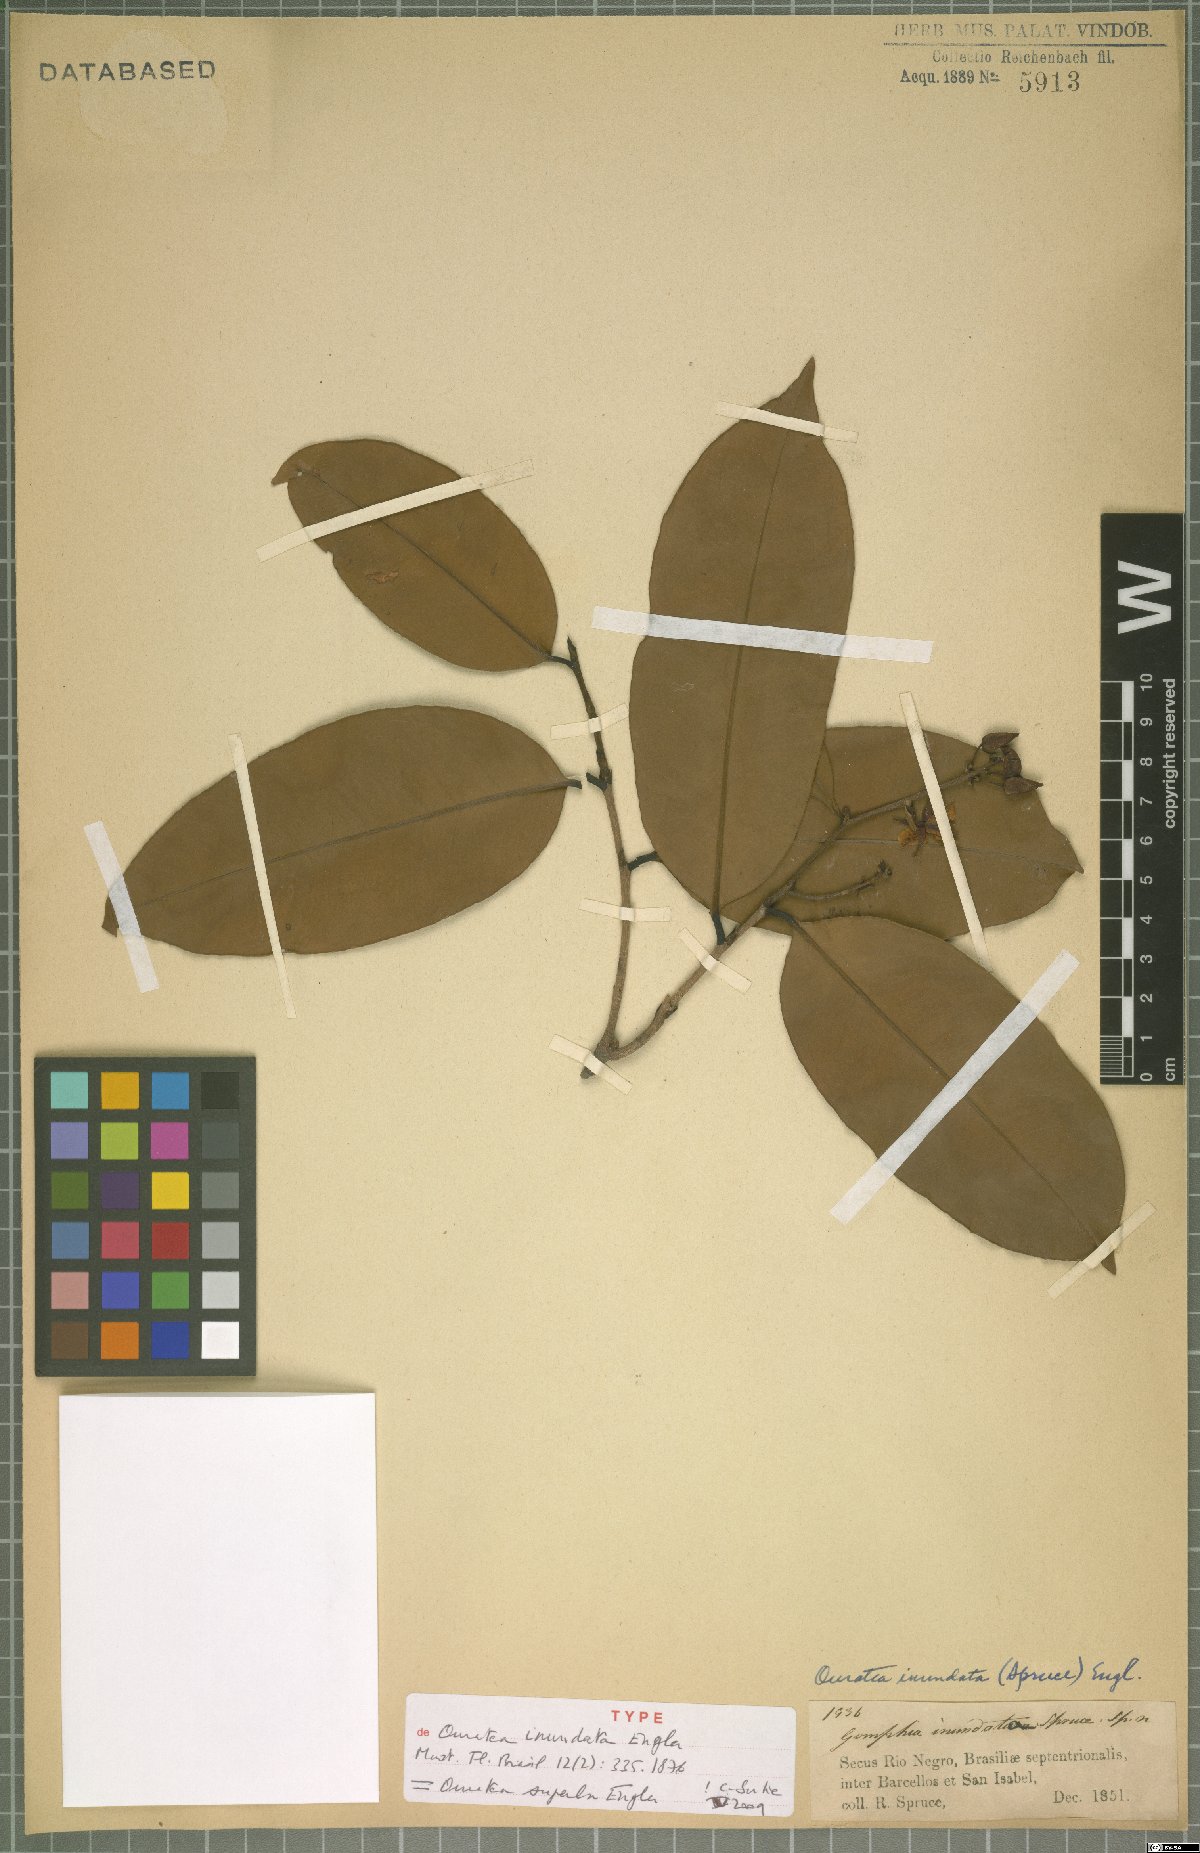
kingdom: Plantae
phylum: Tracheophyta
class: Magnoliopsida
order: Malpighiales
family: Ochnaceae
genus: Ouratea
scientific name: Ouratea superba
